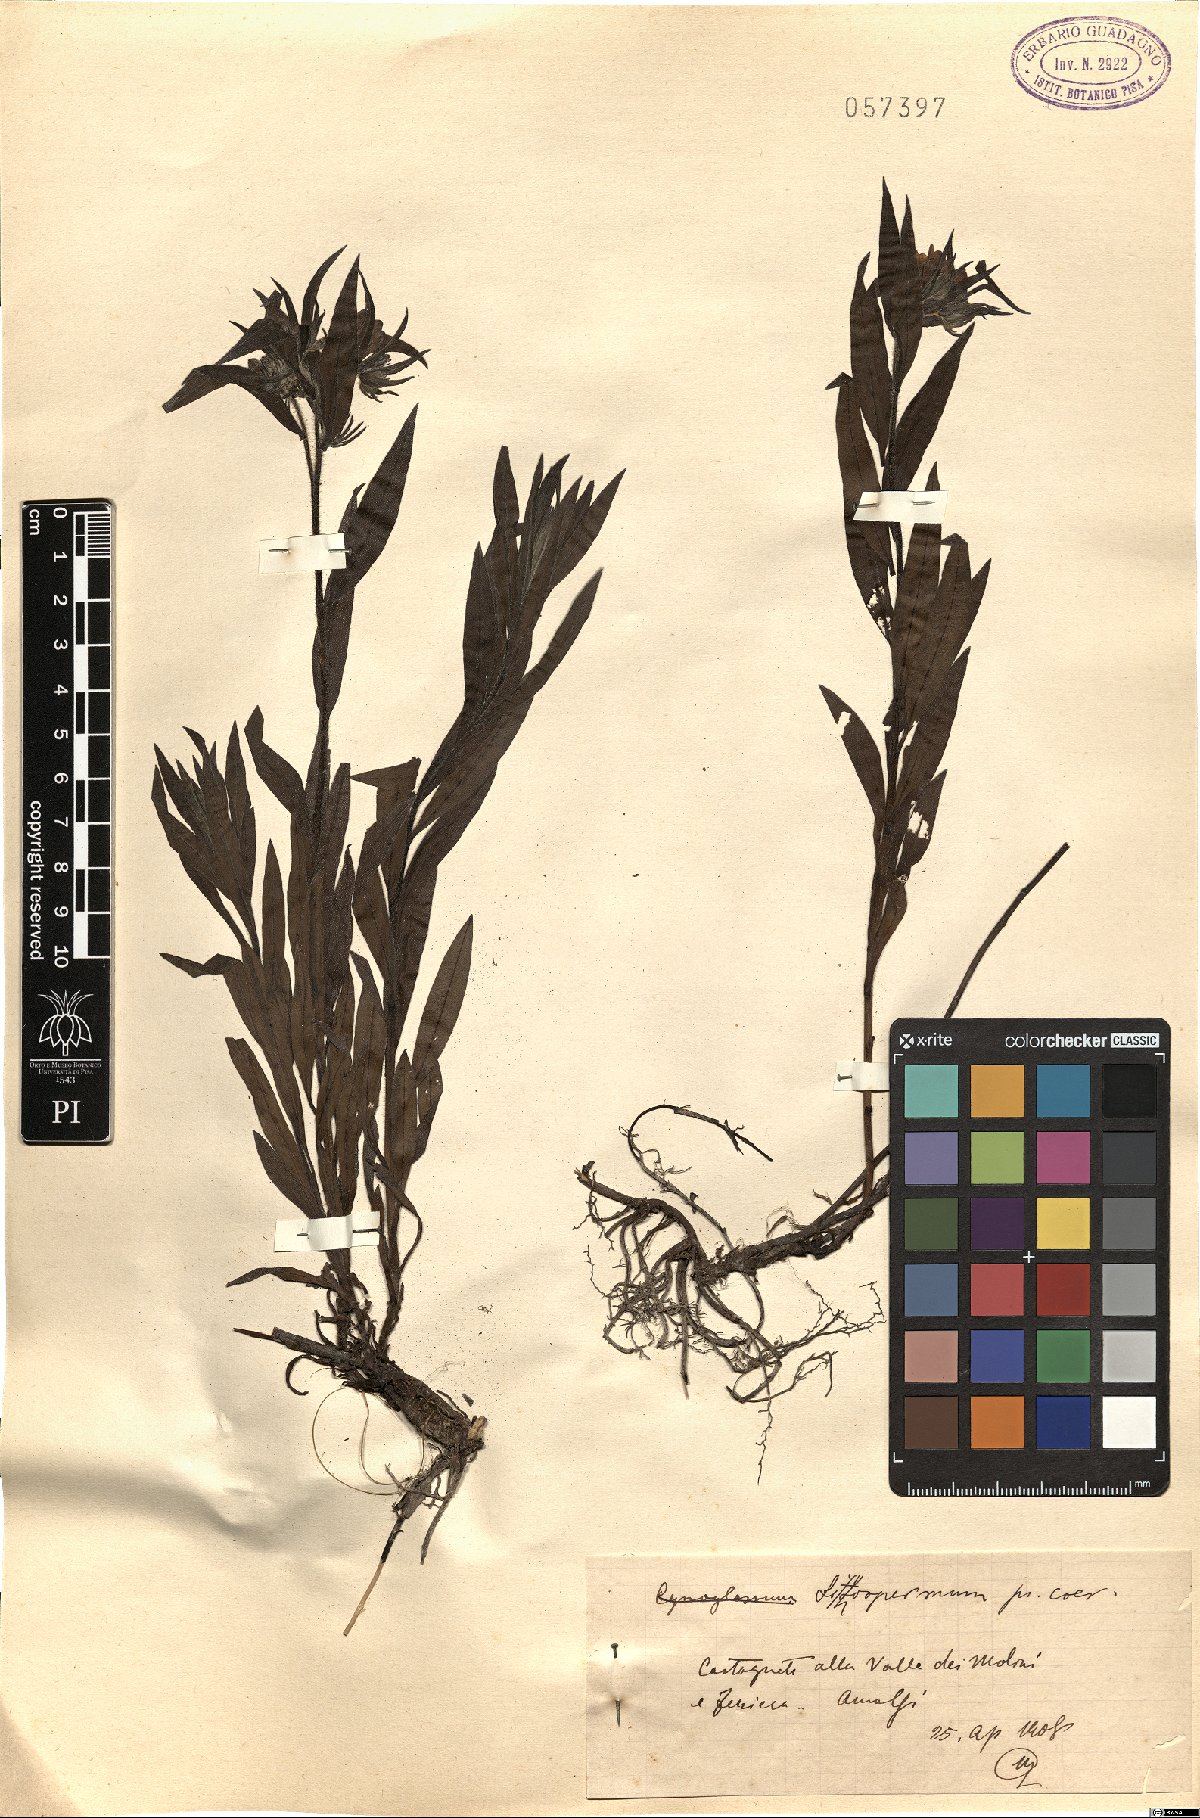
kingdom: Plantae
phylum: Tracheophyta
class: Magnoliopsida
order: Boraginales
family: Boraginaceae
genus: Aegonychon
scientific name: Aegonychon purpurocaeruleum
